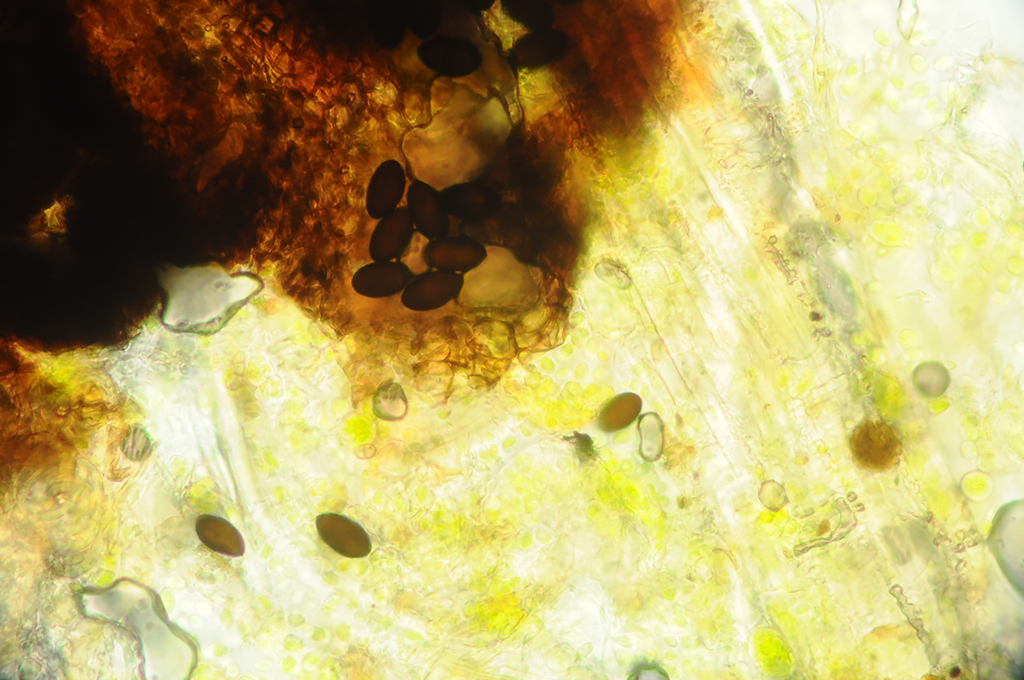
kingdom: Fungi
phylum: Ascomycota
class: Sordariomycetes
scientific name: Sordariomycetes
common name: kernesvampklassen
